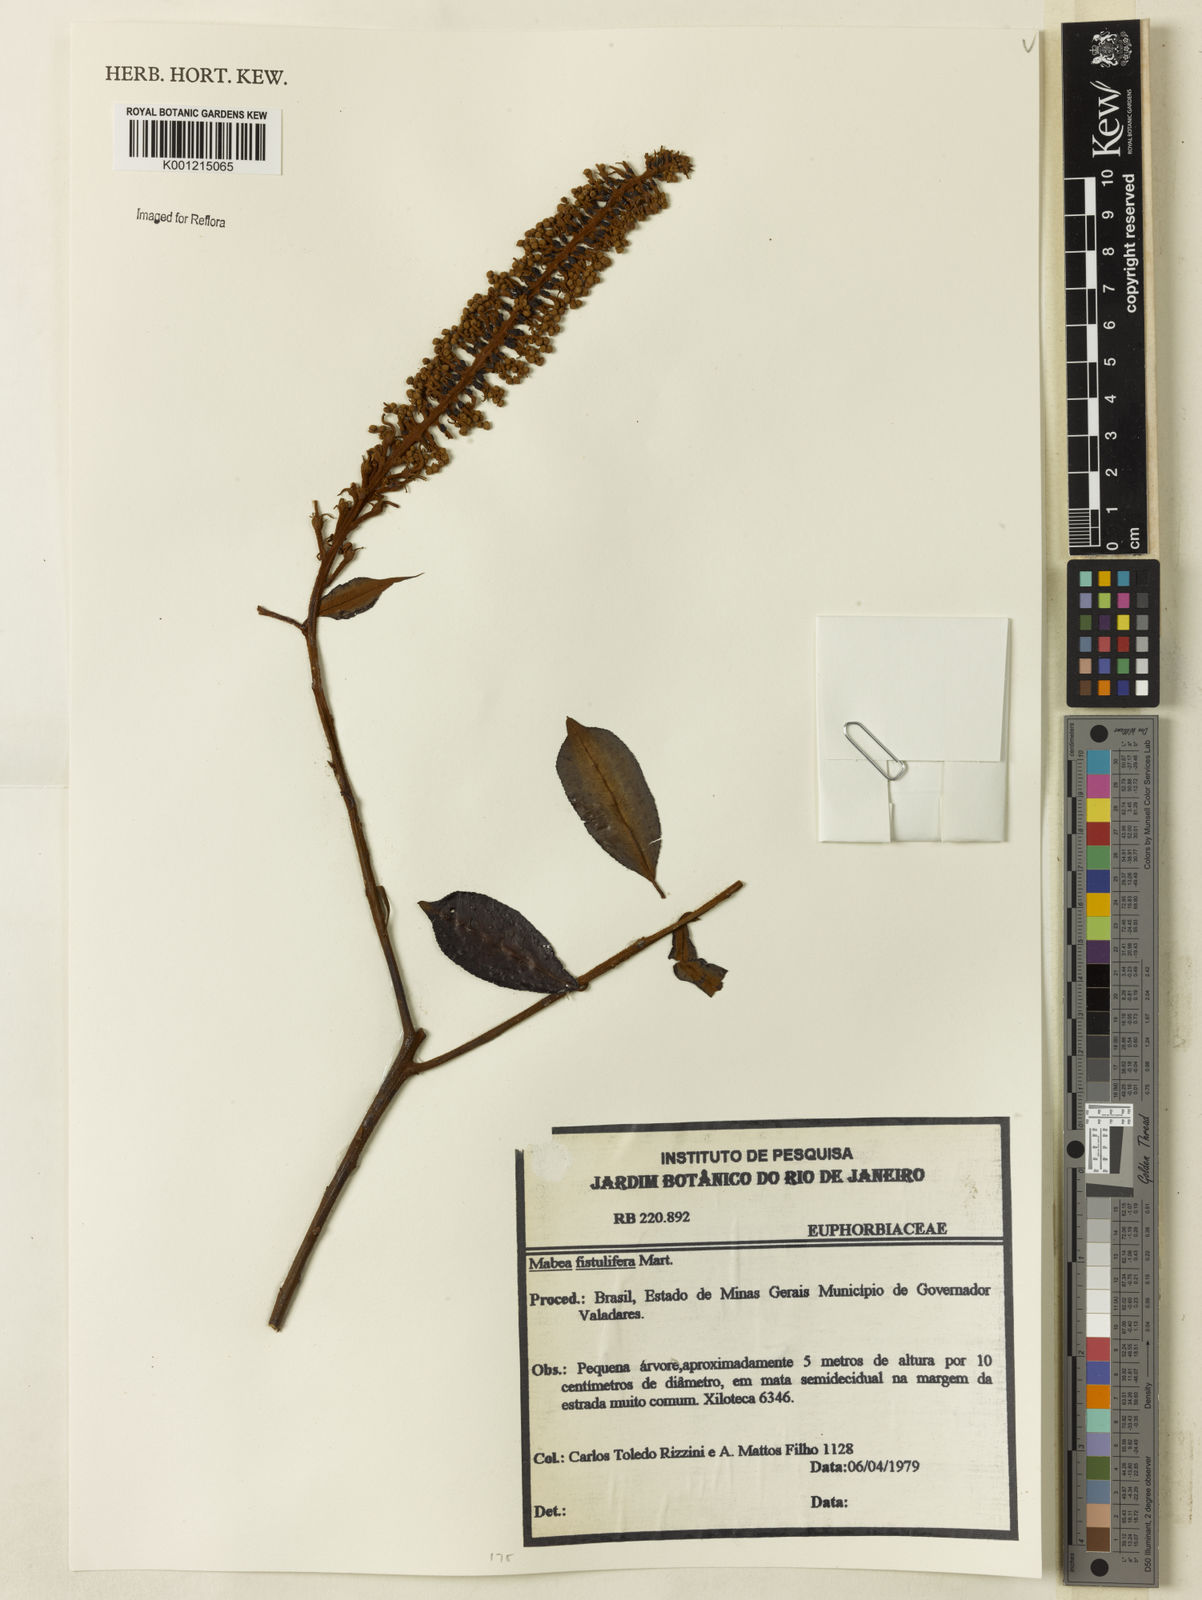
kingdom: Plantae
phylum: Tracheophyta
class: Magnoliopsida
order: Malpighiales
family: Euphorbiaceae
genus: Mabea
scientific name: Mabea fistulifera
